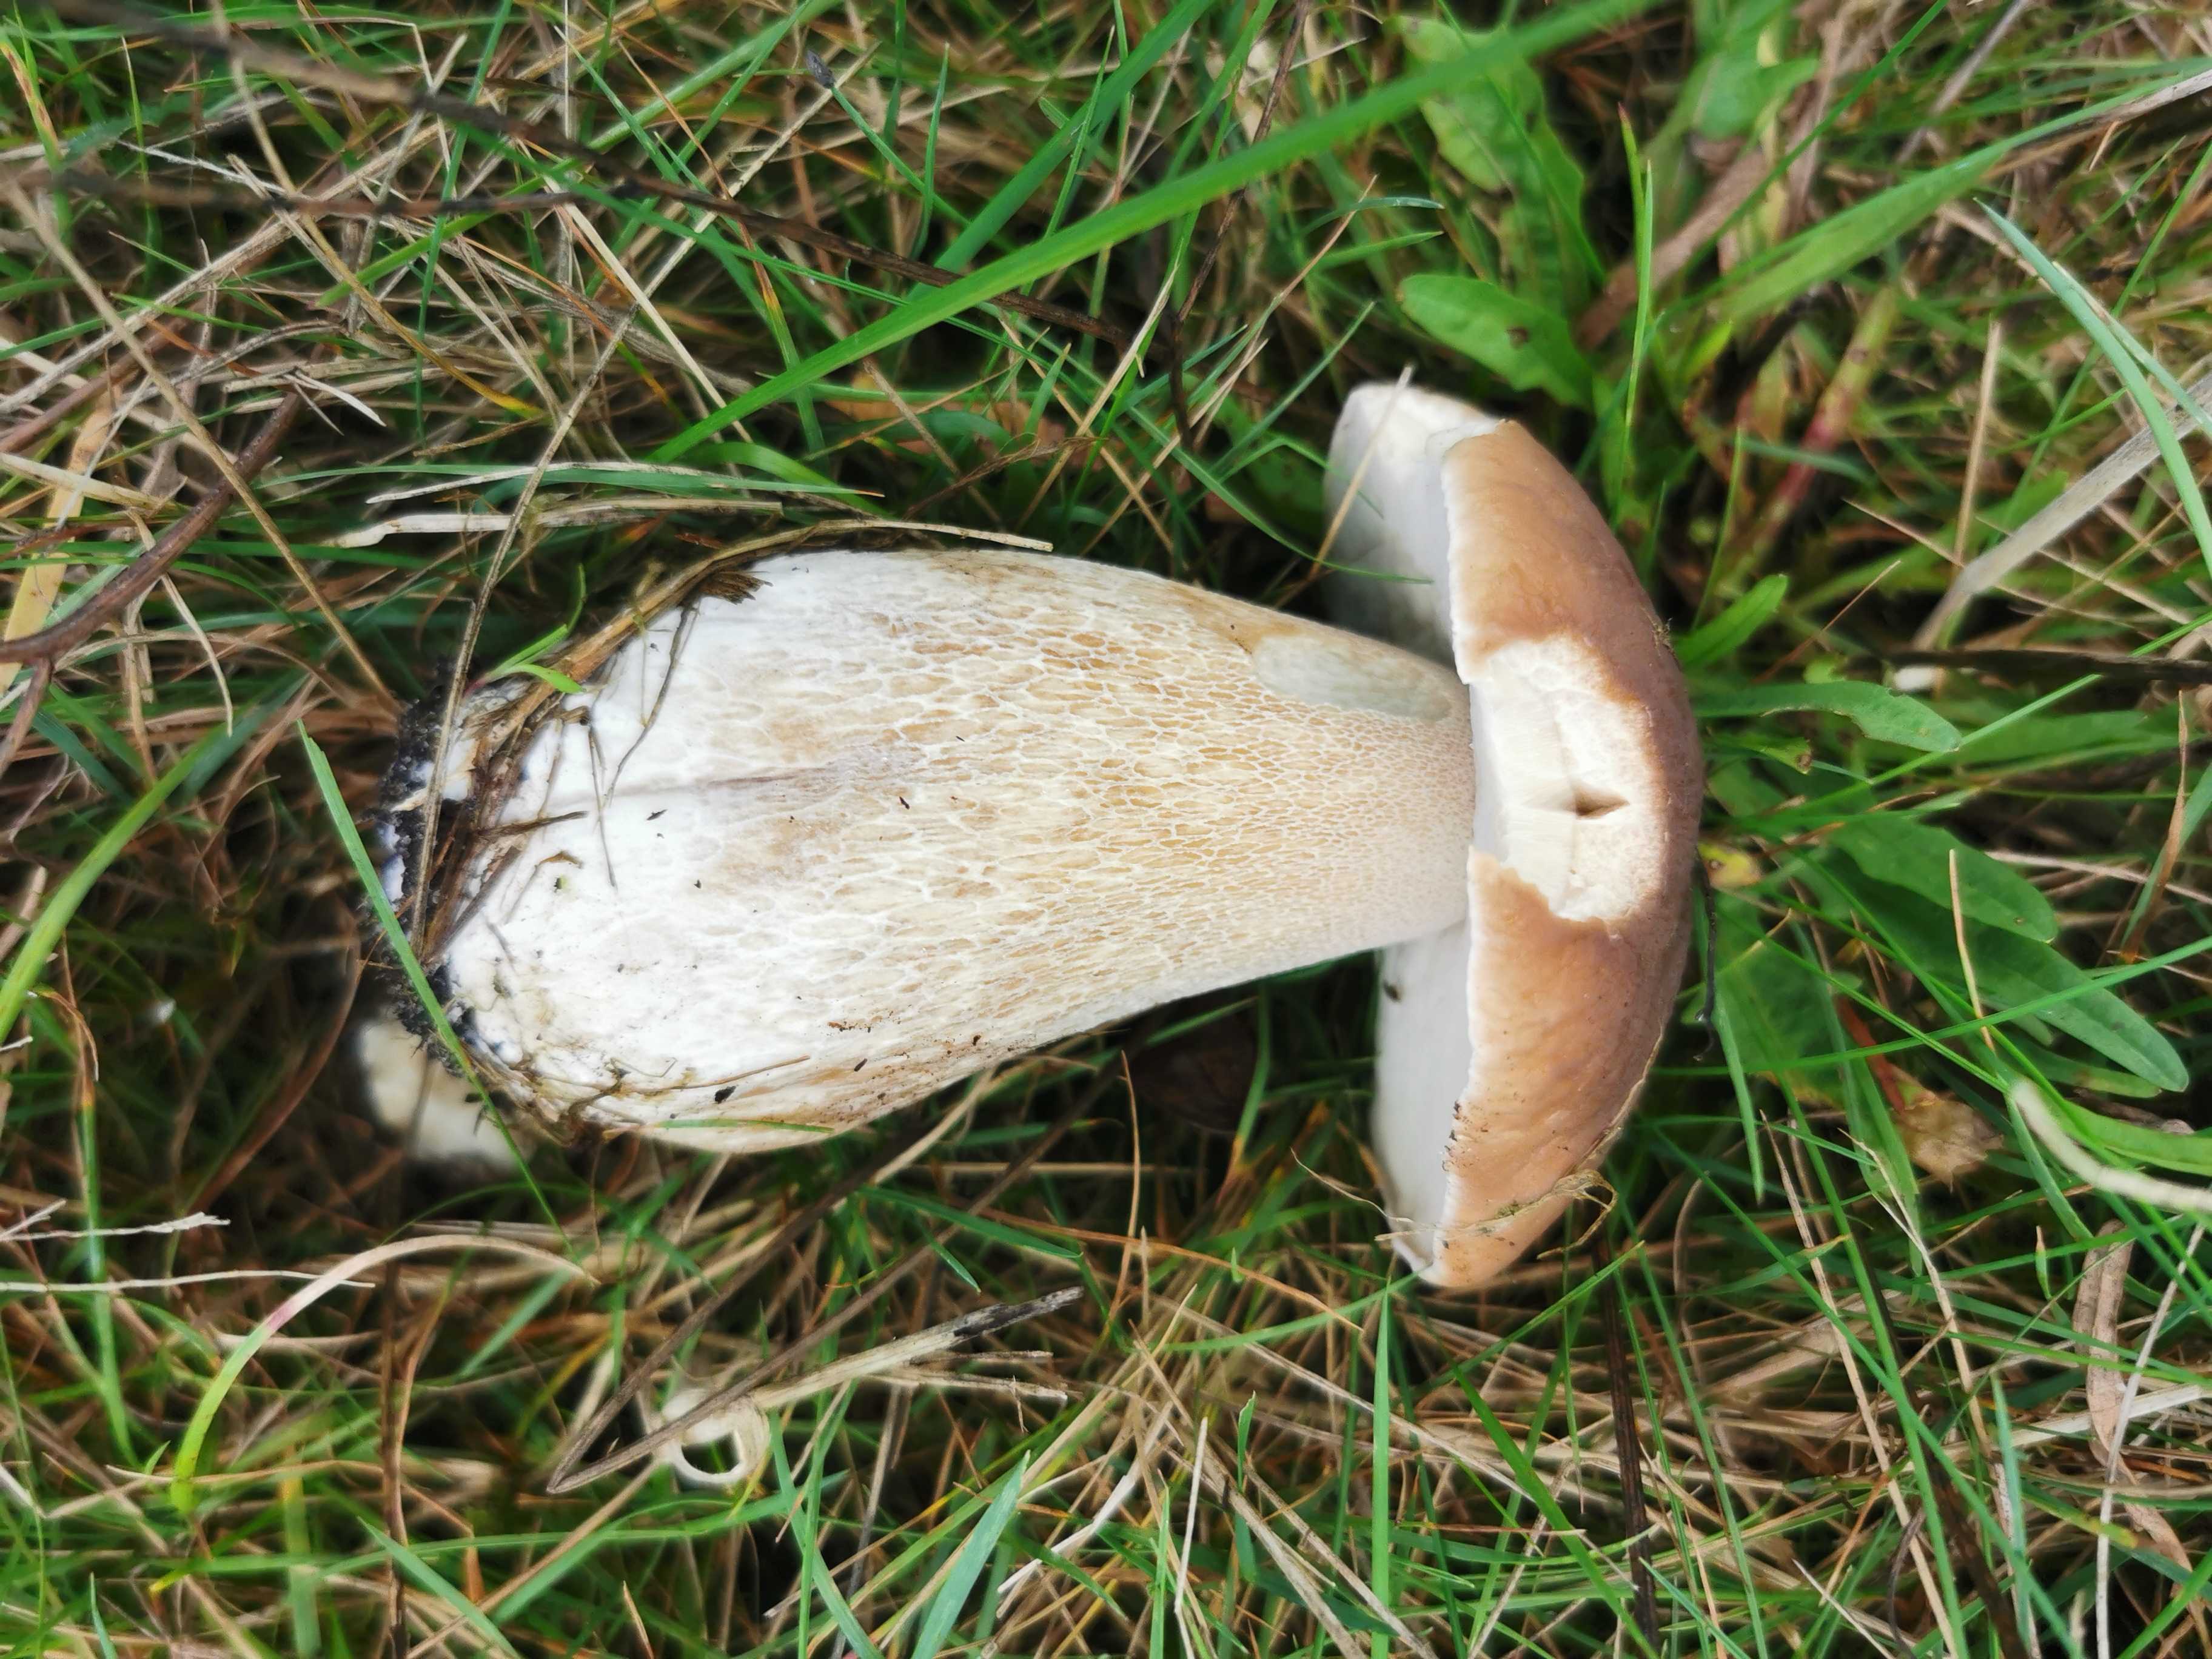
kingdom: Fungi
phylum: Basidiomycota
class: Agaricomycetes
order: Boletales
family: Boletaceae
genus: Boletus
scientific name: Boletus edulis
